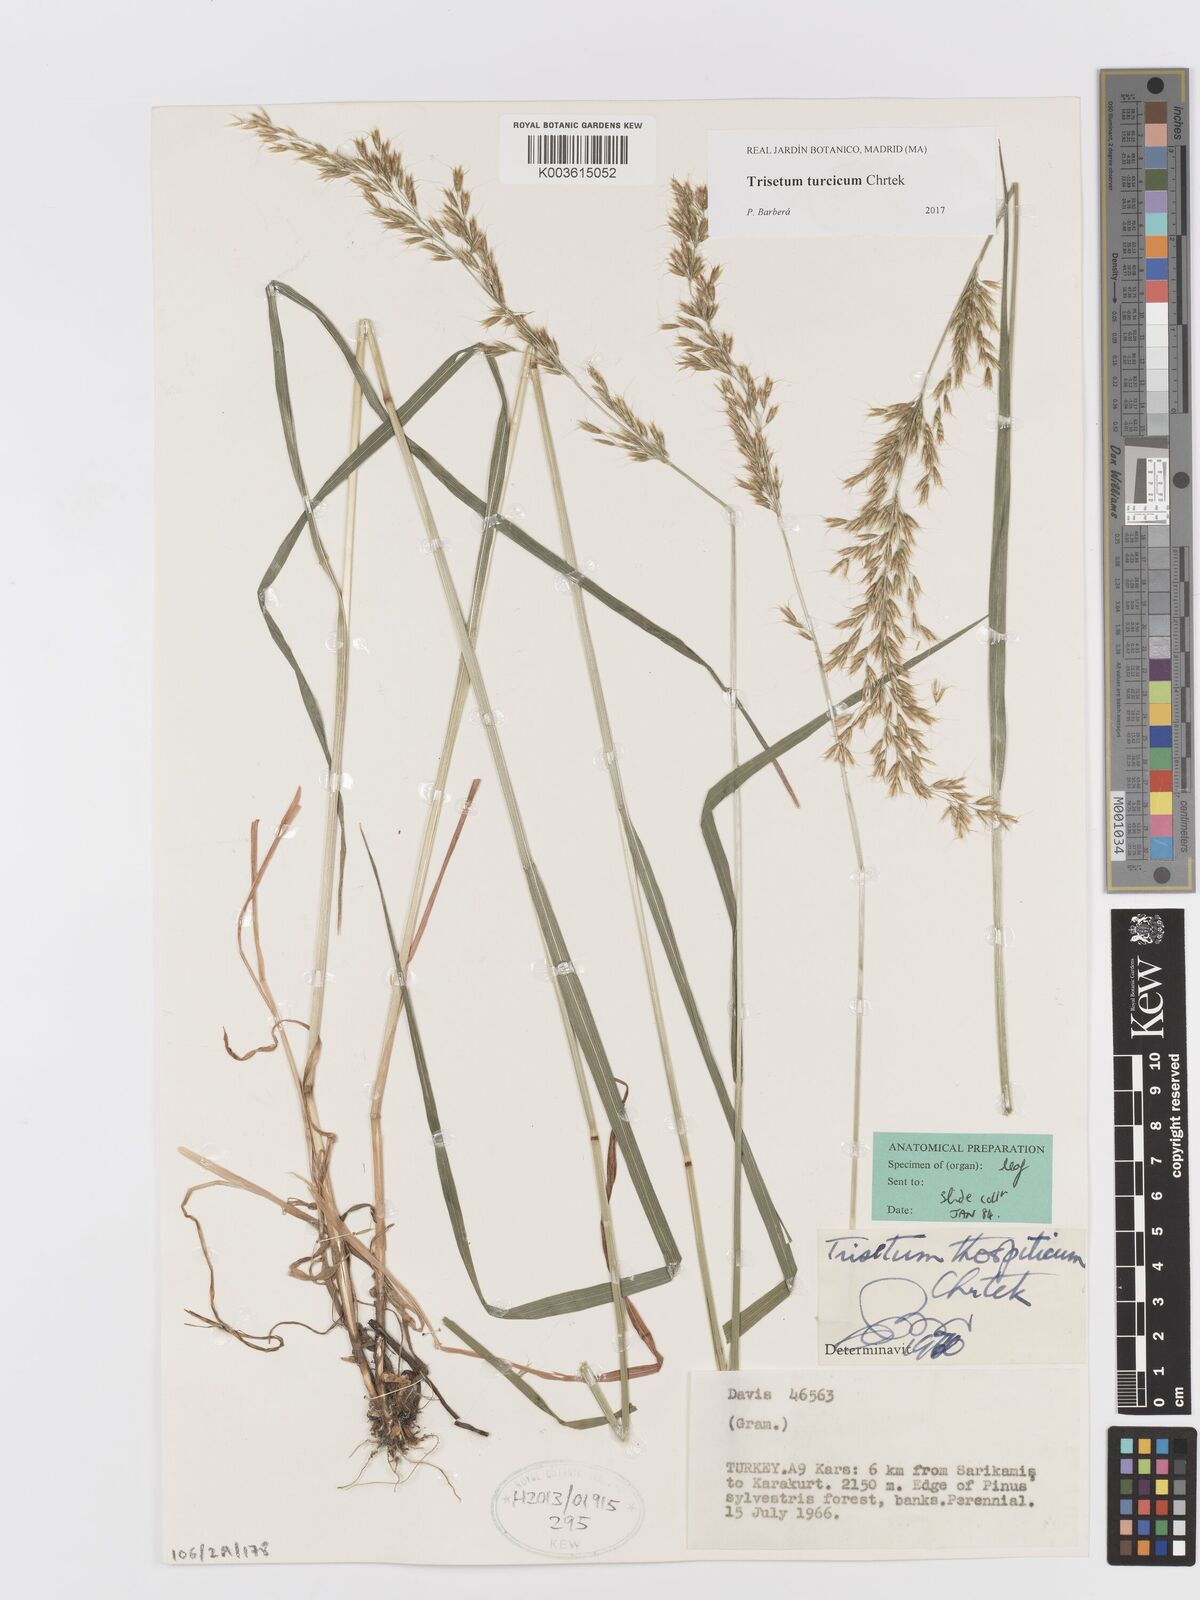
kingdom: Plantae
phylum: Tracheophyta
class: Liliopsida
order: Poales
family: Poaceae
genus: Sibirotrisetum
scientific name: Sibirotrisetum turcicum
